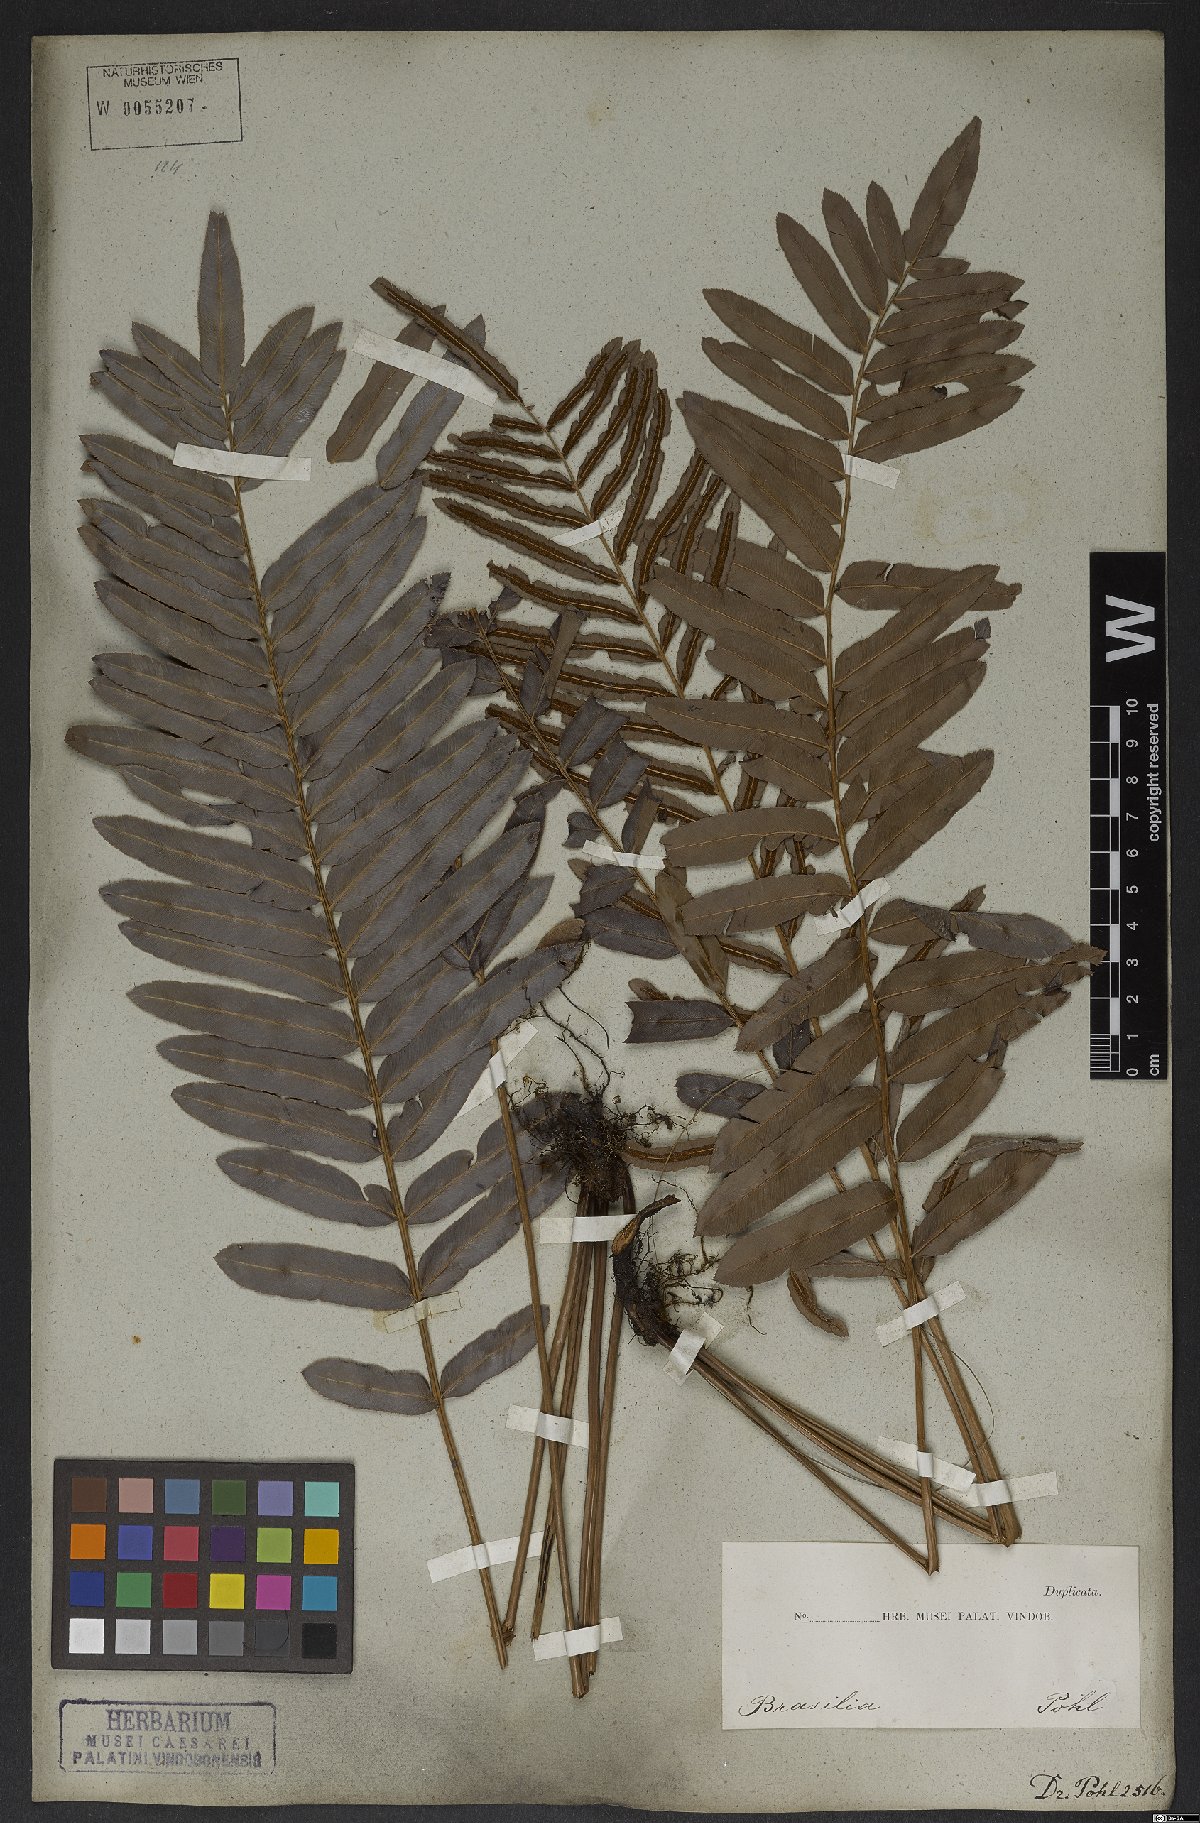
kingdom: Plantae
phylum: Tracheophyta
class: Polypodiopsida
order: Polypodiales
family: Blechnaceae
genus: Telmatoblechnum
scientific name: Telmatoblechnum serrulatum
